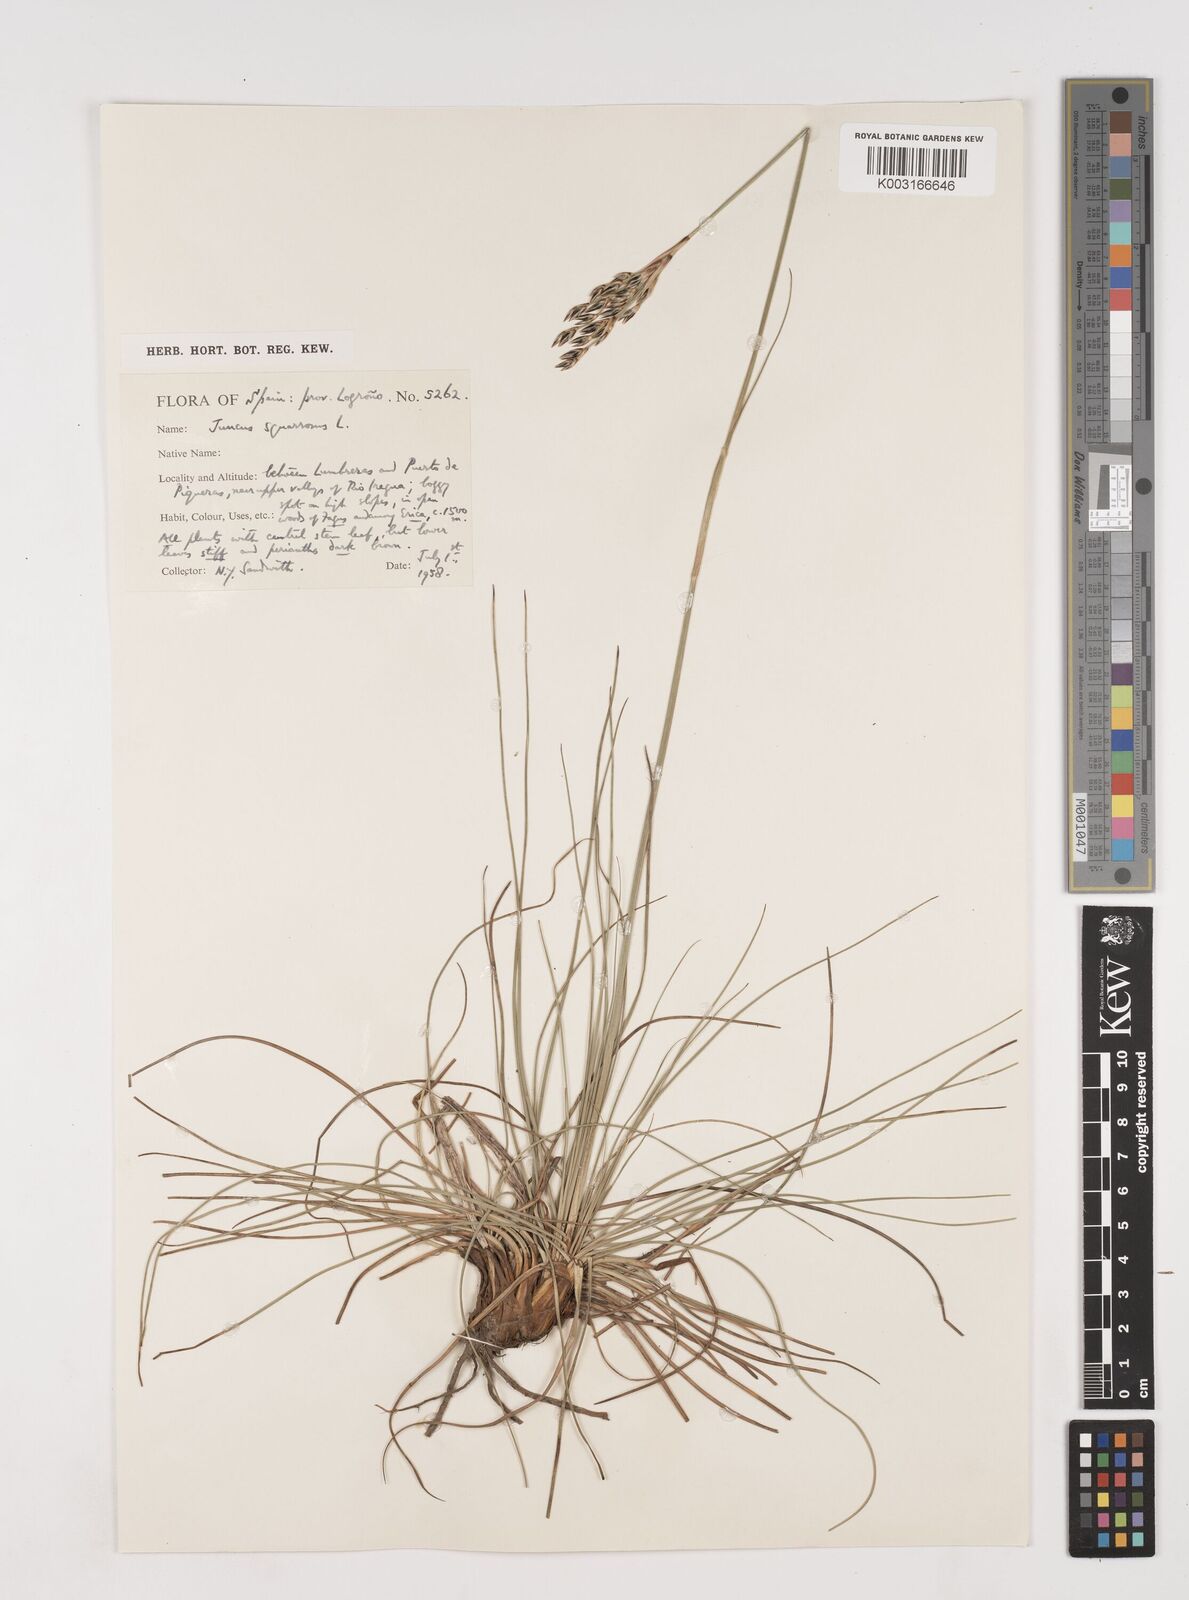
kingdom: Plantae
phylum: Tracheophyta
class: Liliopsida
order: Poales
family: Juncaceae
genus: Juncus
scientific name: Juncus squarrosus
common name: Heath rush
